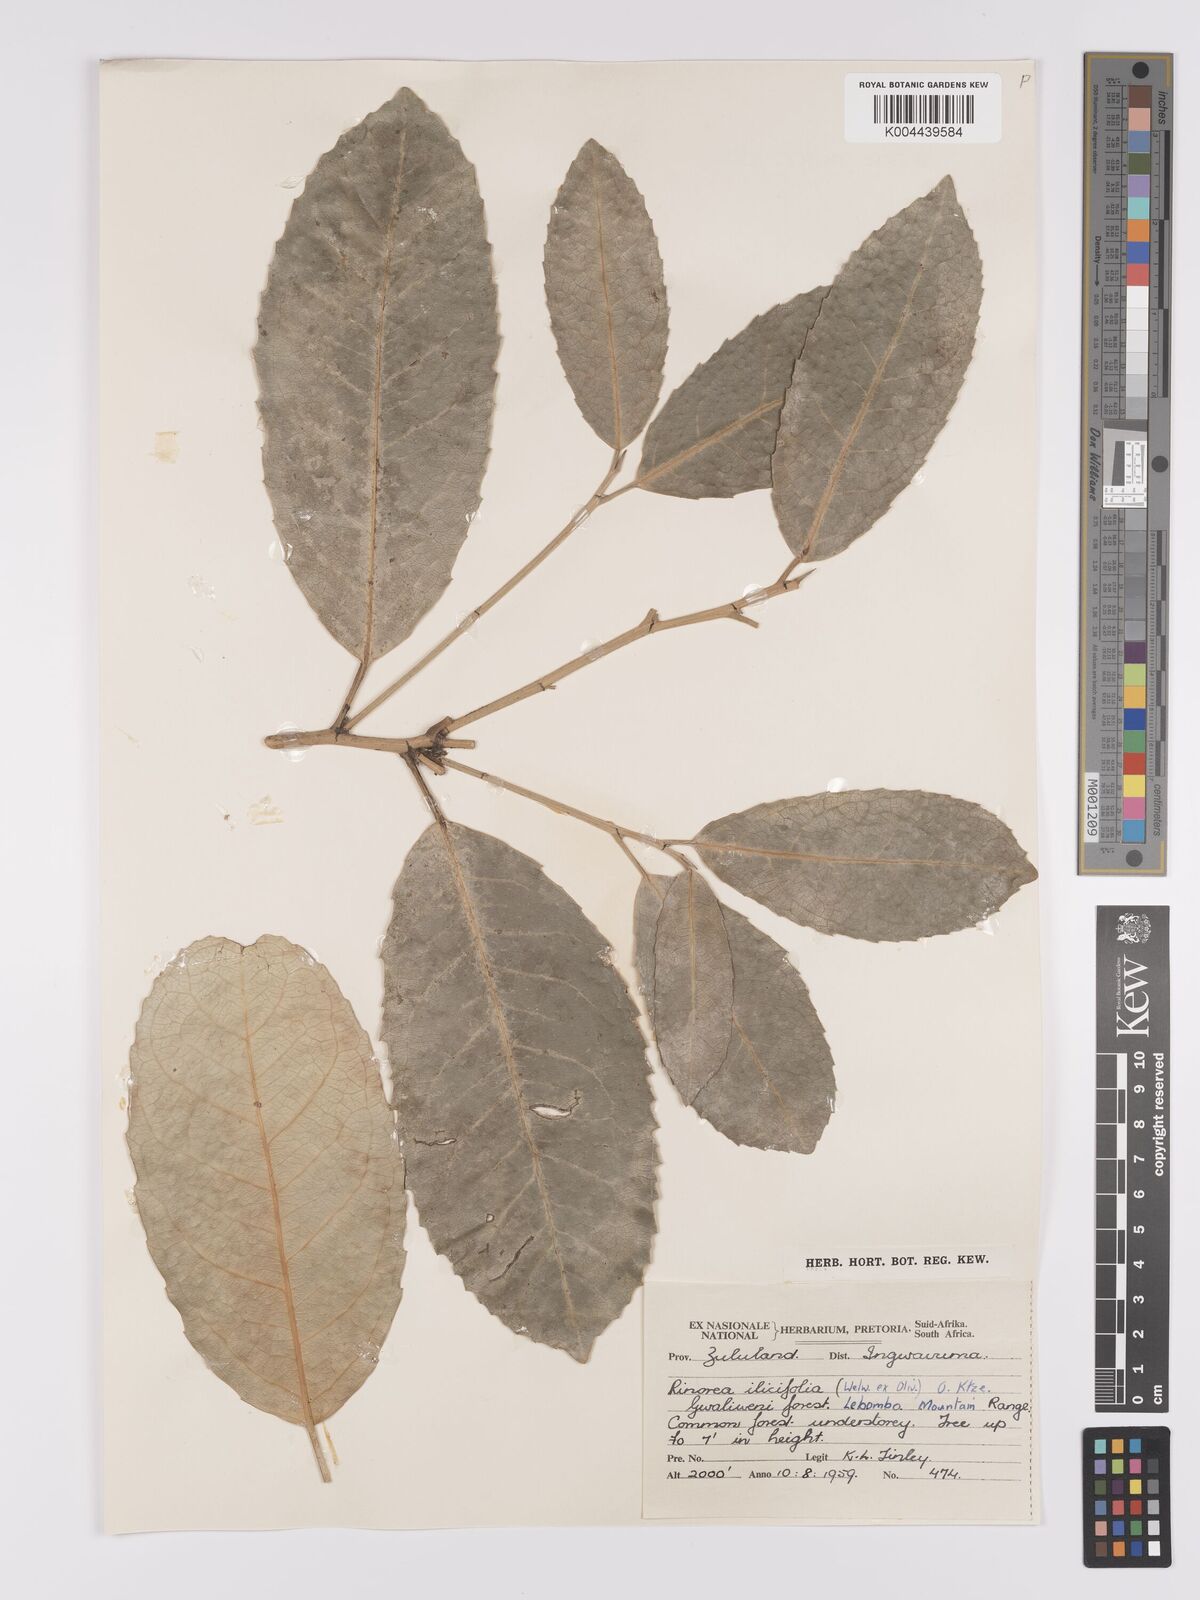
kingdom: Plantae
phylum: Tracheophyta
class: Magnoliopsida
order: Malpighiales
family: Violaceae
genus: Rinorea
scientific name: Rinorea ilicifolia
